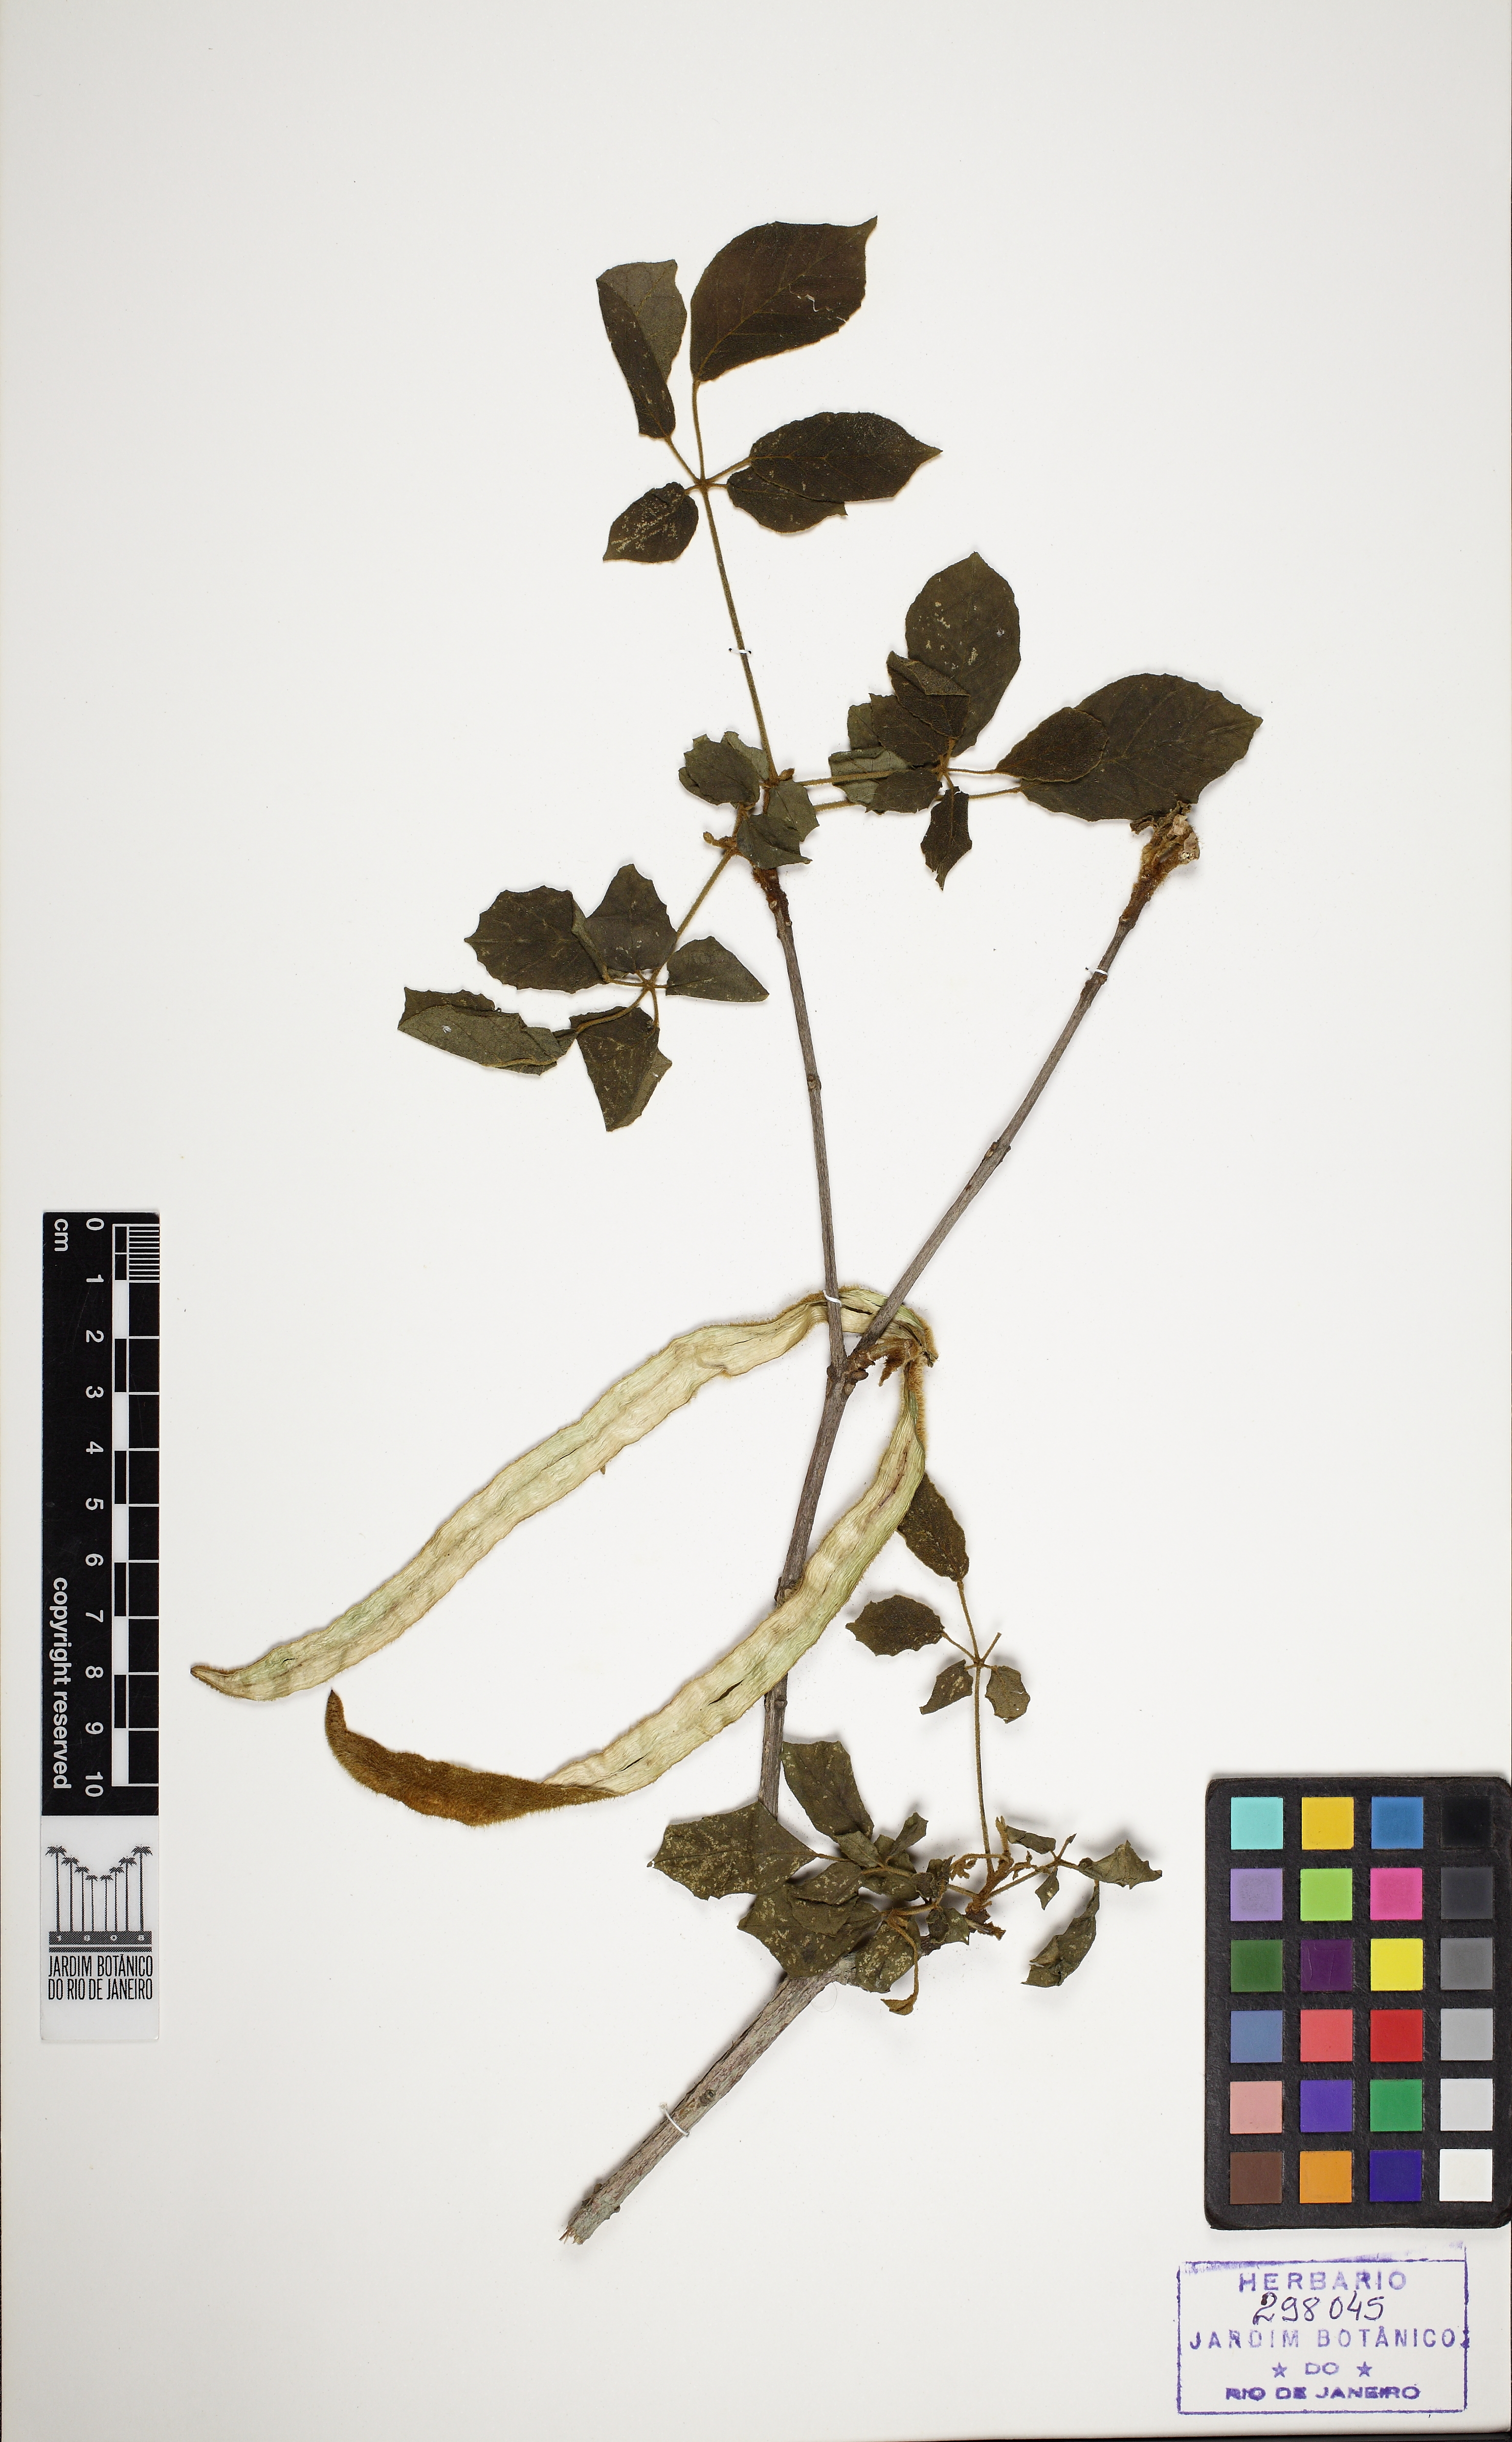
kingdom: Plantae
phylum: Tracheophyta
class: Magnoliopsida
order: Lamiales
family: Bignoniaceae
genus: Handroanthus
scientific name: Handroanthus chrysotrichus
